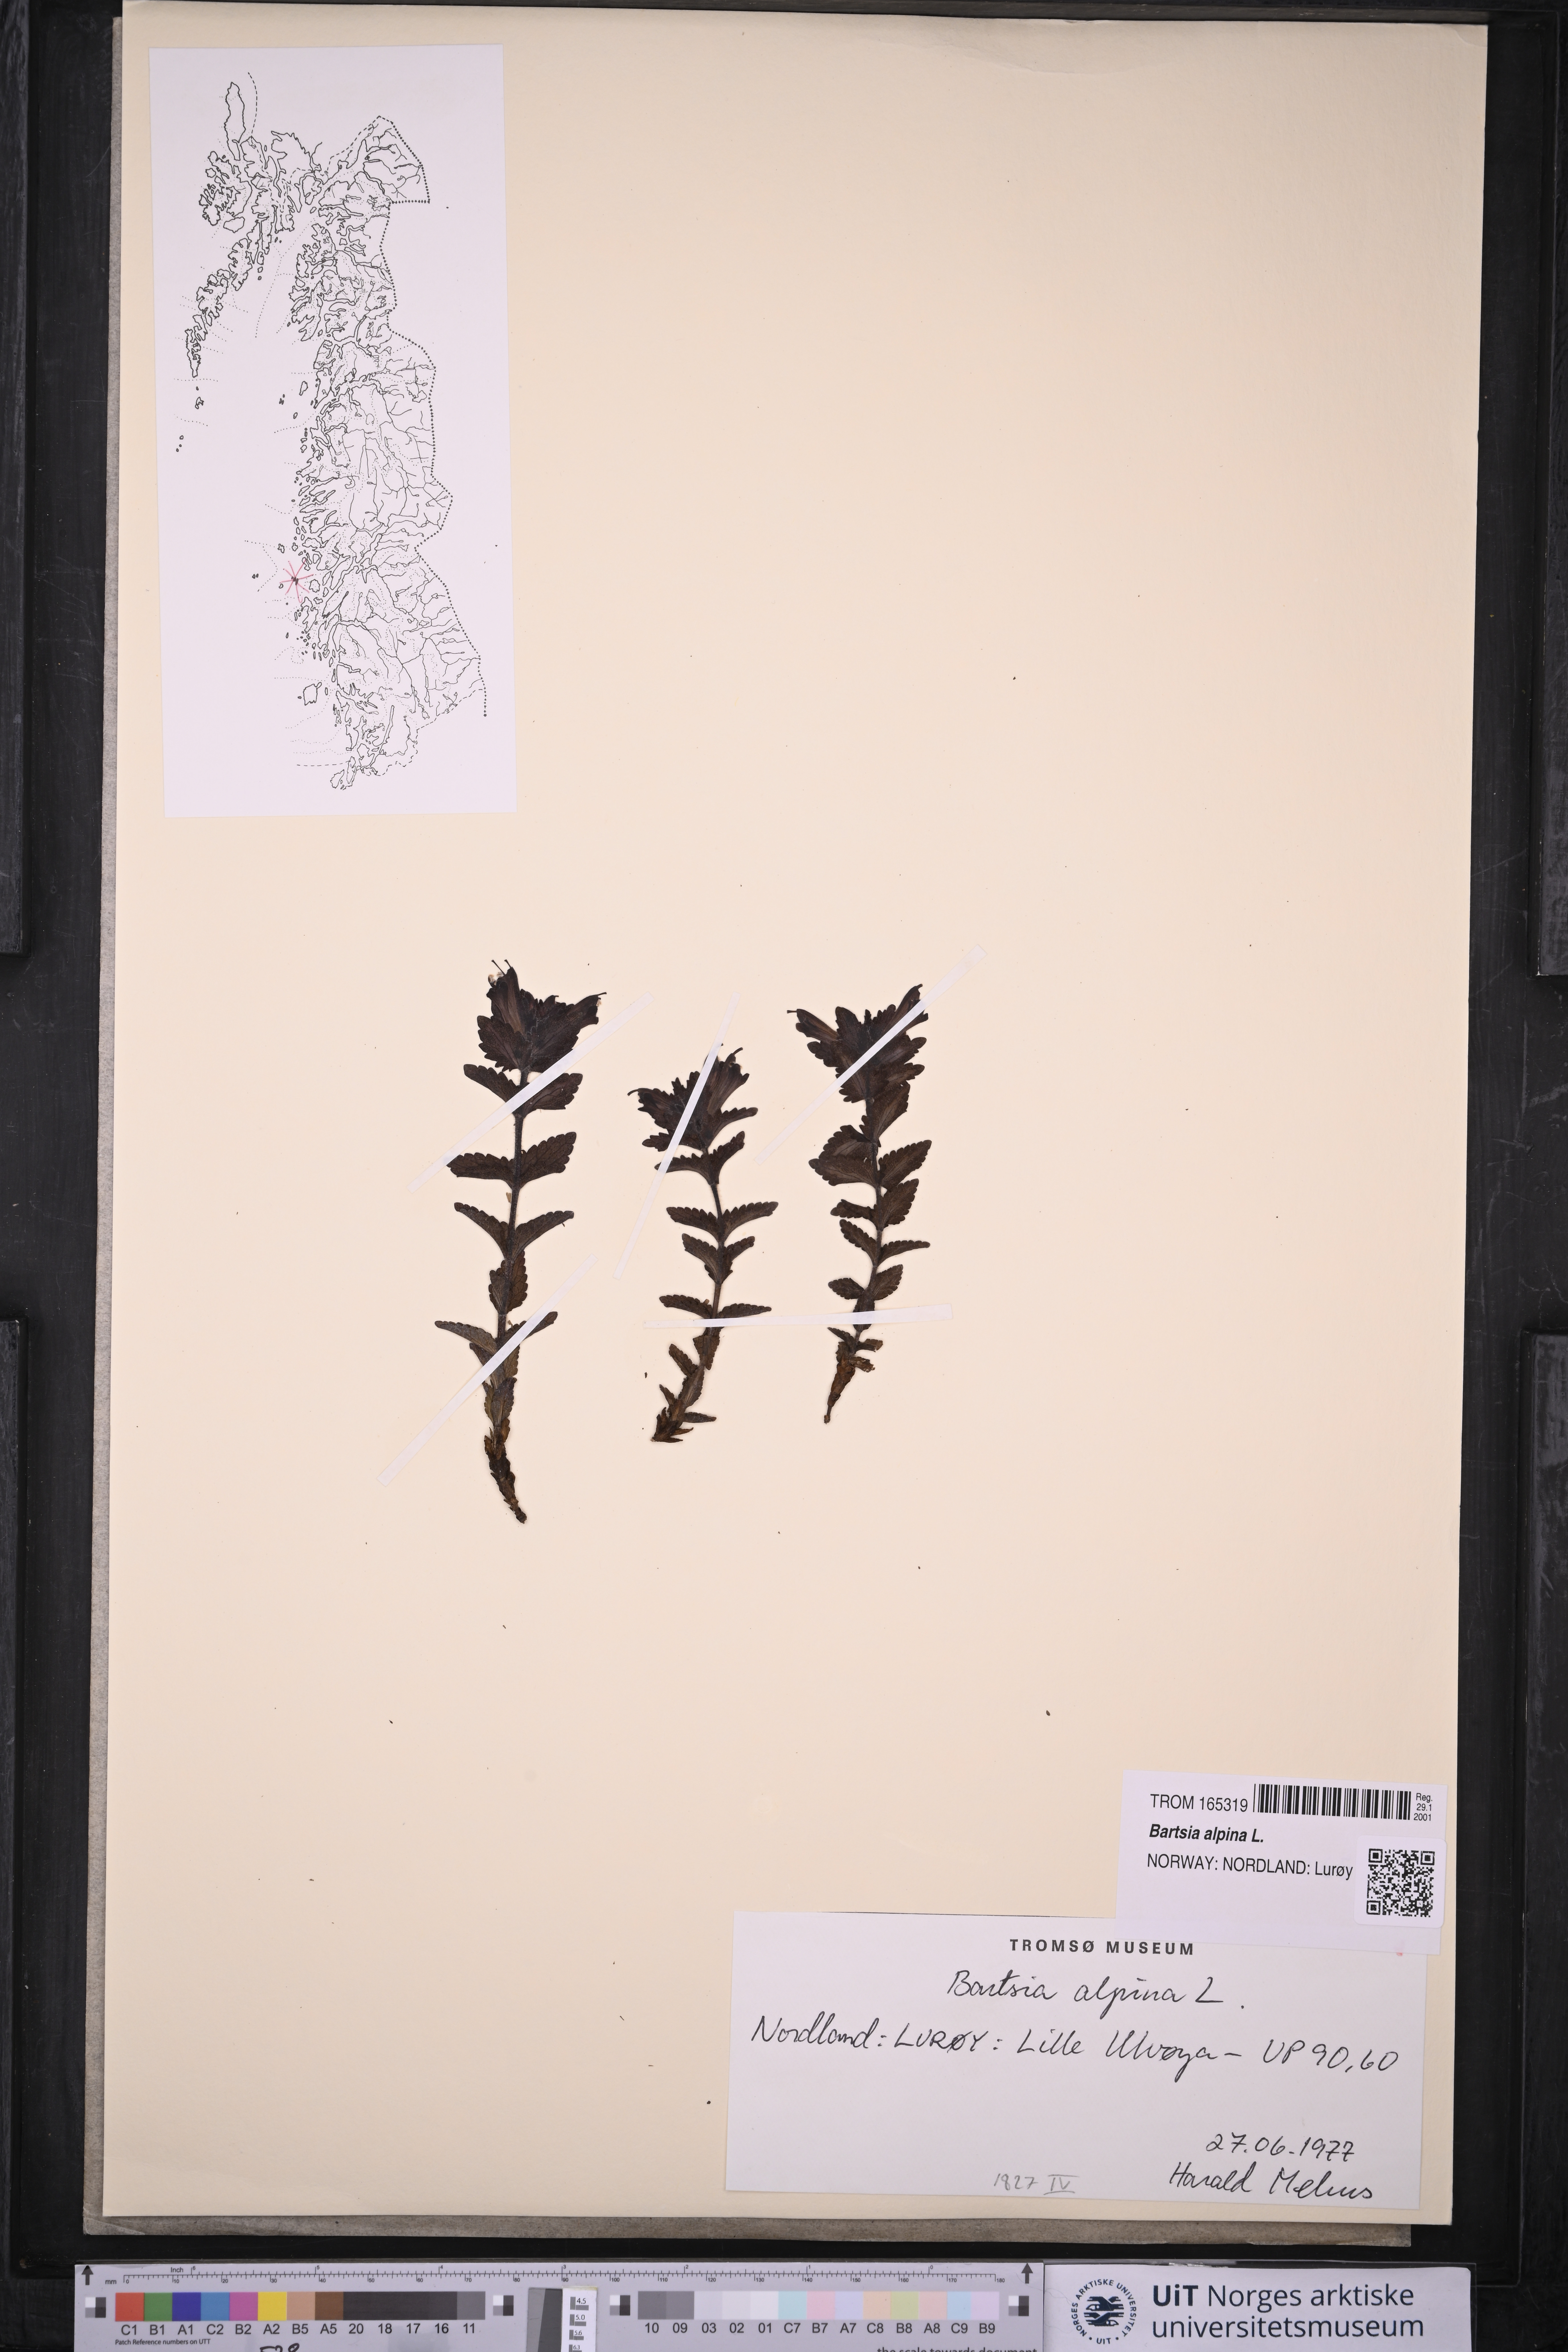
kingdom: Plantae
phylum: Tracheophyta
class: Magnoliopsida
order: Lamiales
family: Orobanchaceae
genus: Bartsia
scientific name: Bartsia alpina
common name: Alpine bartsia
